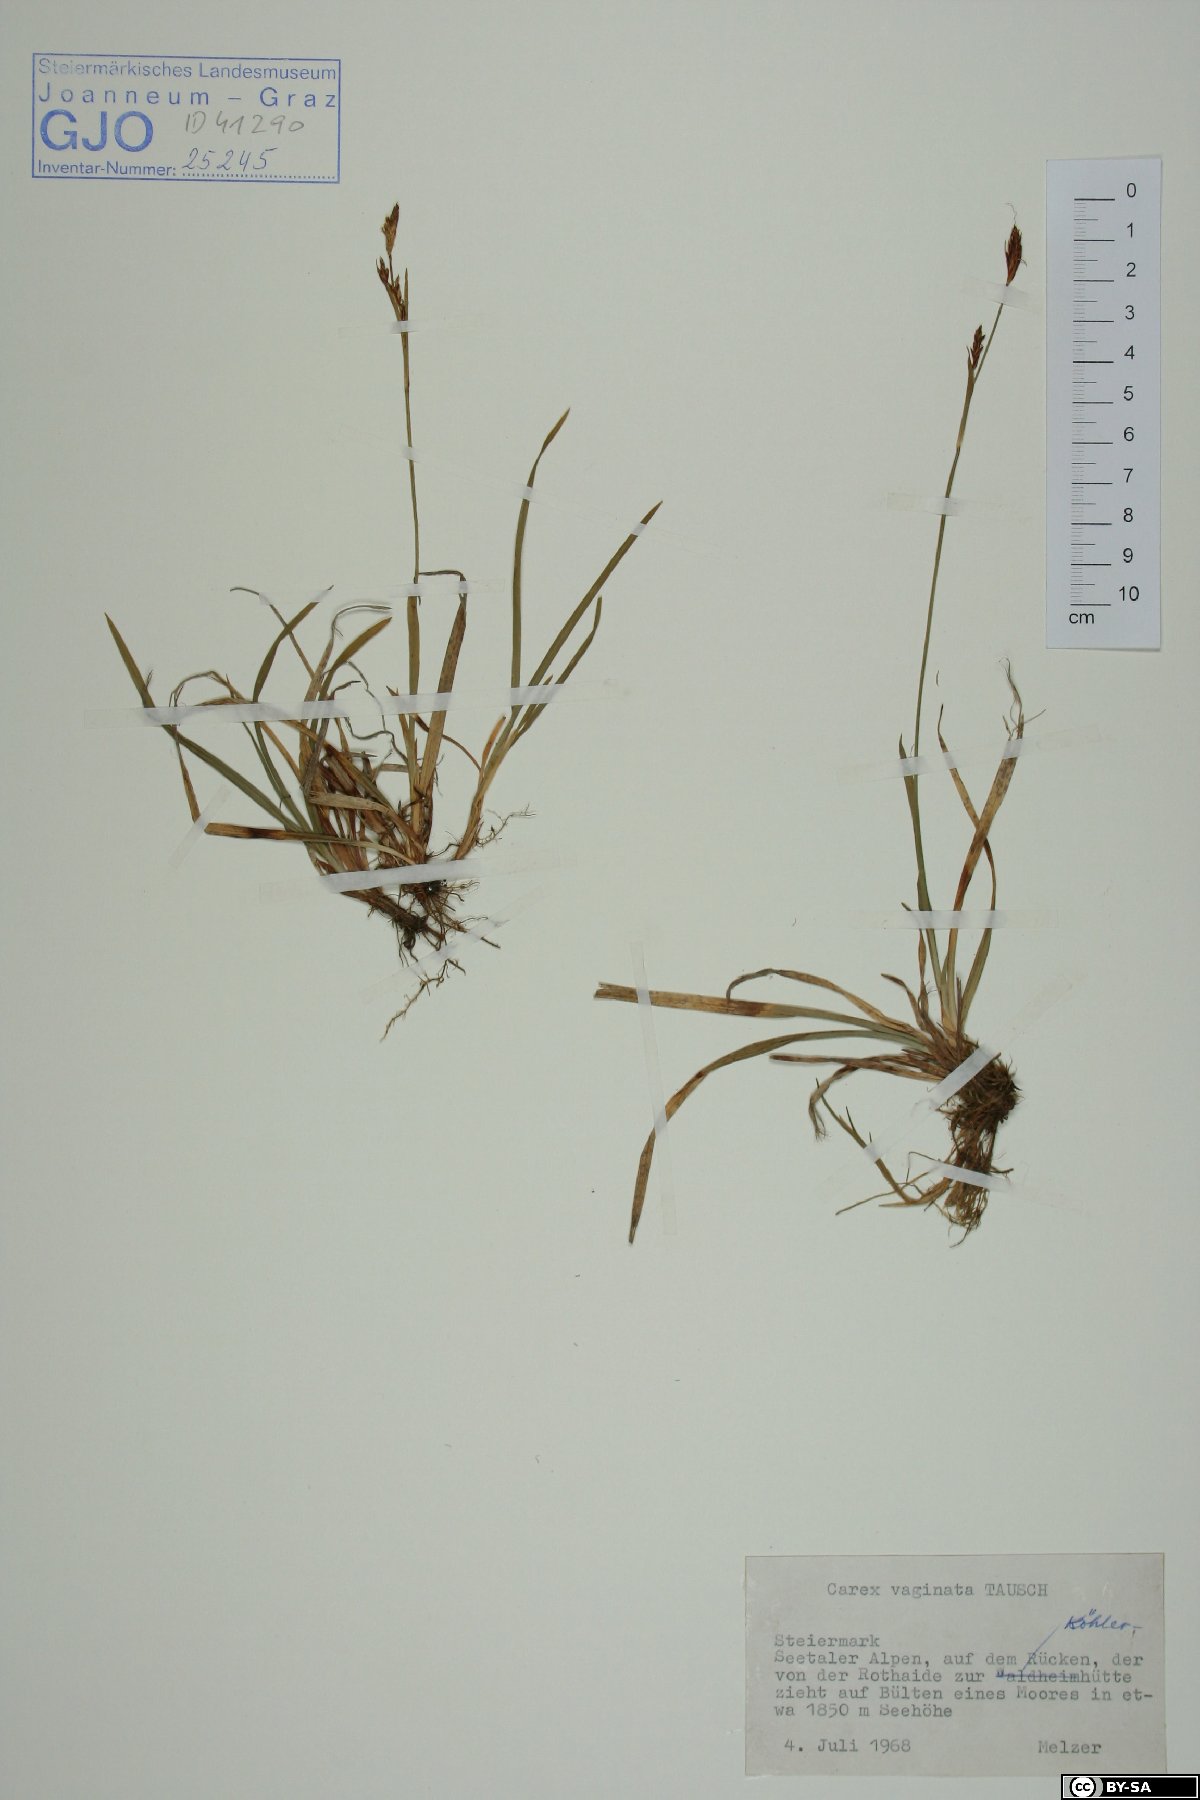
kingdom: Plantae
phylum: Tracheophyta
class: Liliopsida
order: Poales
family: Cyperaceae
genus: Carex
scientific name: Carex vaginata
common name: Sheathed sedge
